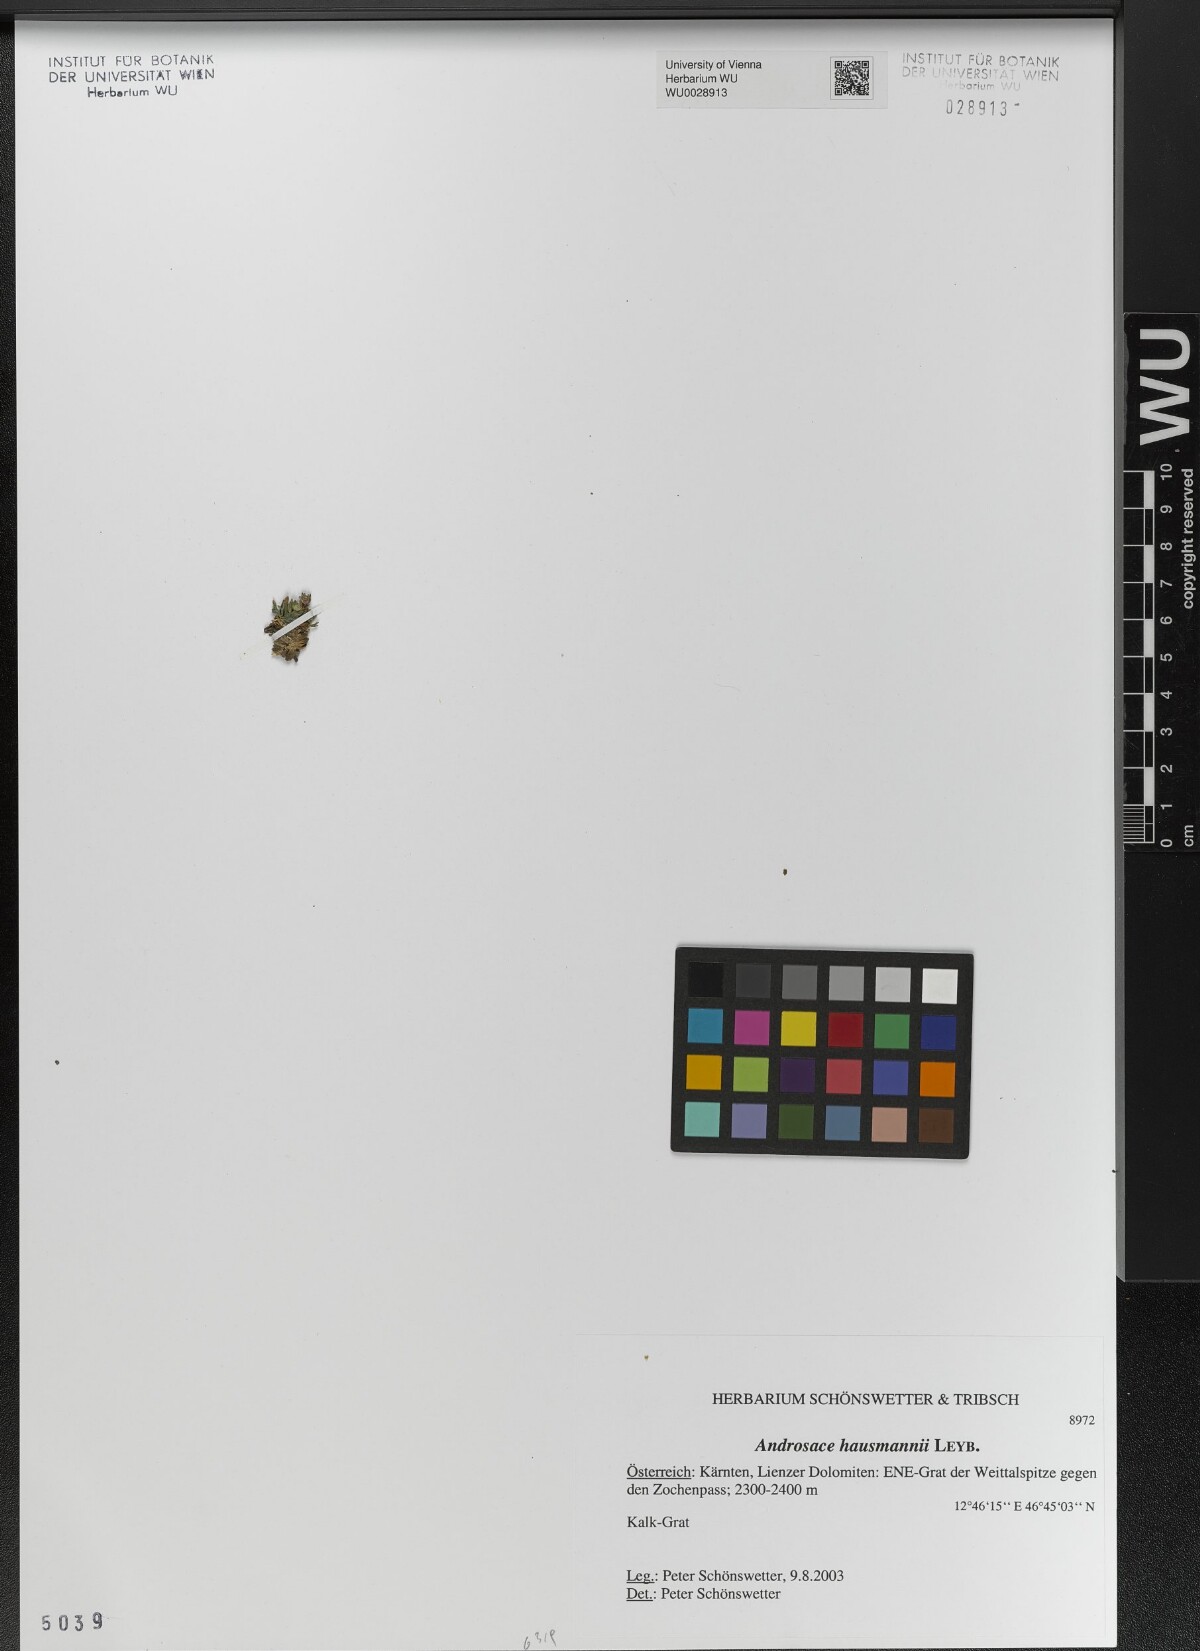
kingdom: Plantae
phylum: Tracheophyta
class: Magnoliopsida
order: Ericales
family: Primulaceae
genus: Androsace
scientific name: Androsace hausmannii
